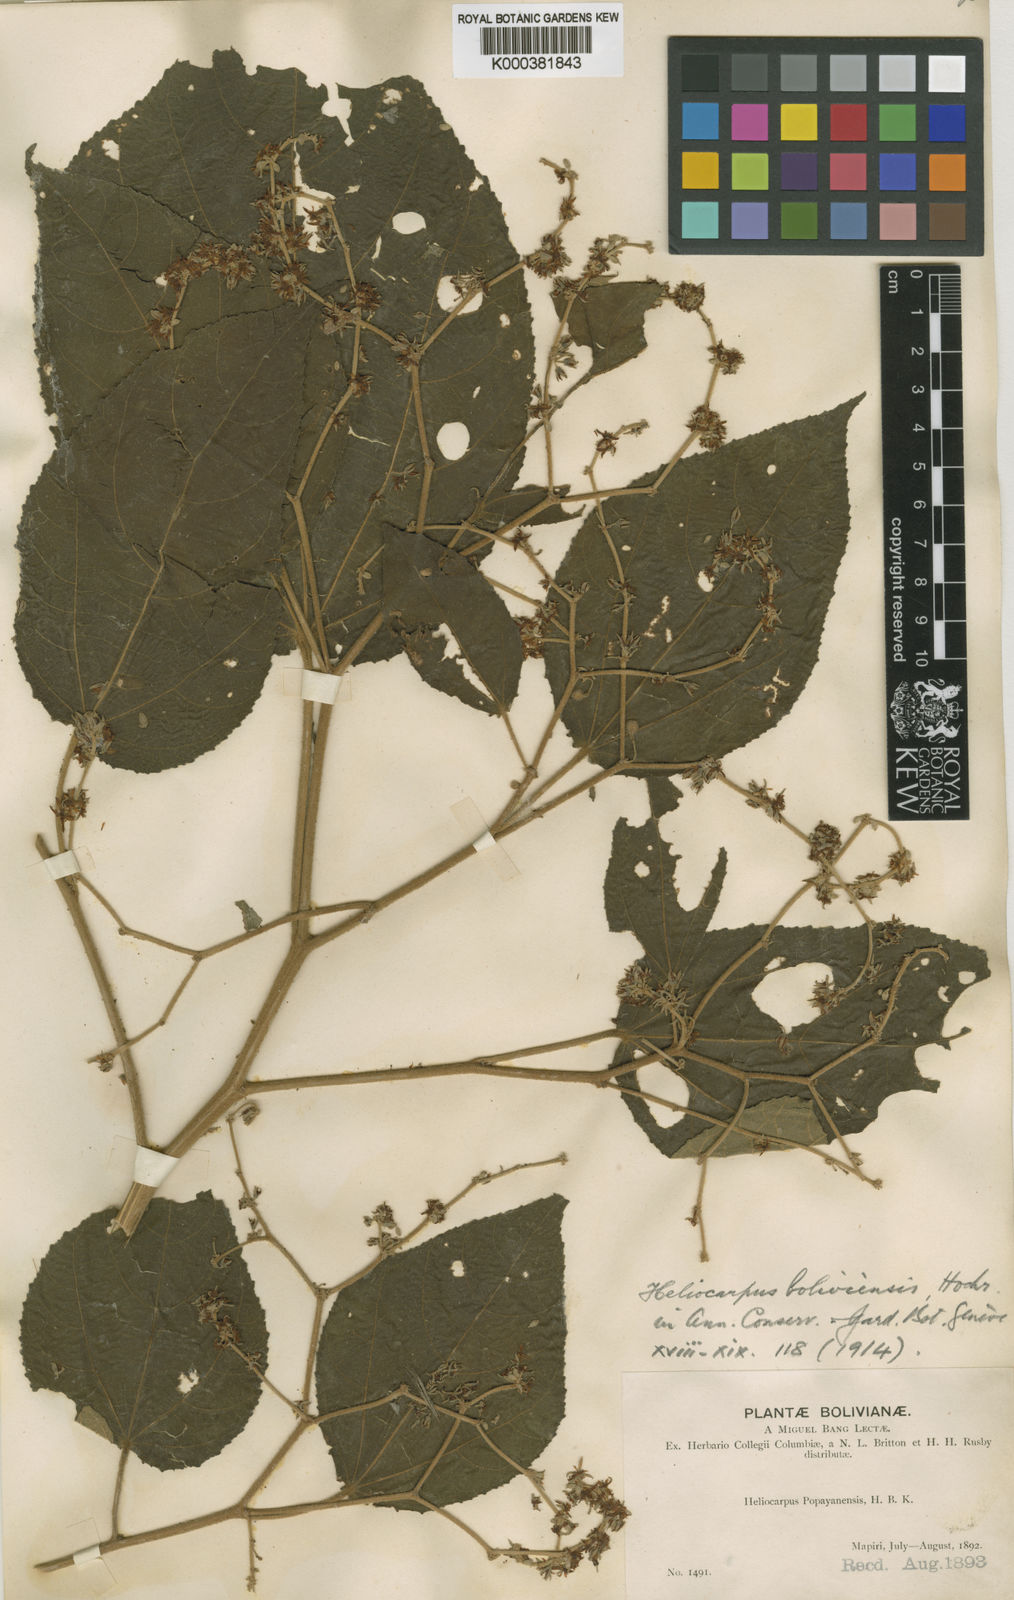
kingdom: Plantae
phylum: Tracheophyta
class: Magnoliopsida
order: Malvales
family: Malvaceae
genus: Heliocarpus
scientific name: Heliocarpus americanus
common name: White moho
